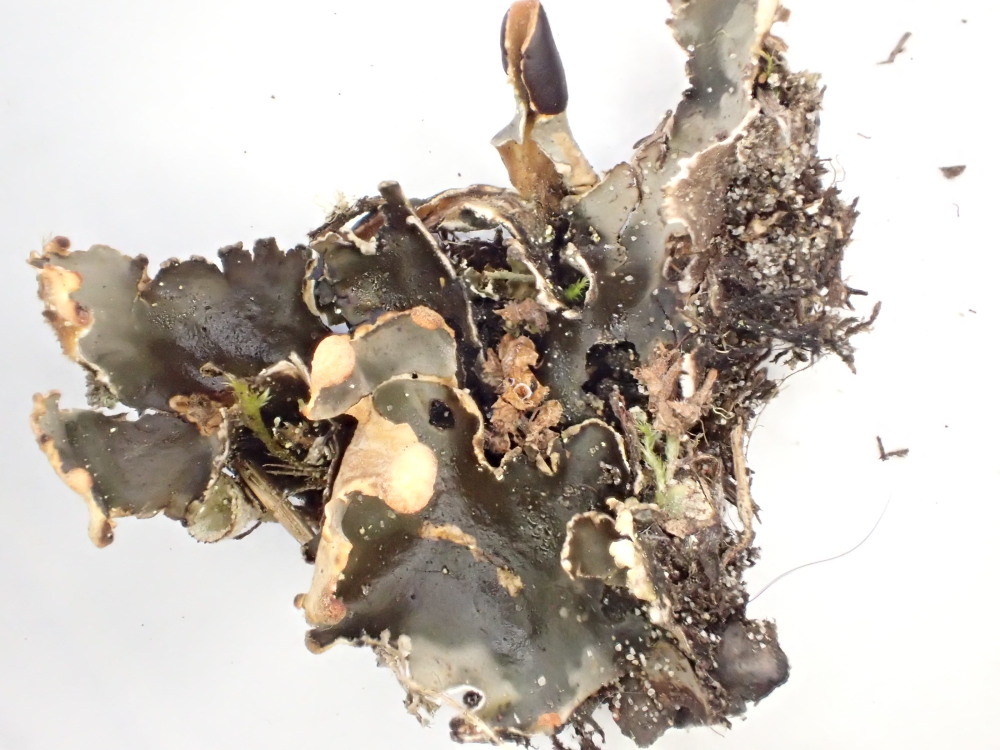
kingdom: Fungi
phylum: Ascomycota
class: Lecanoromycetes
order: Peltigerales
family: Peltigeraceae
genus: Peltigera
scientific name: Peltigera didactyla
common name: liden skjoldlav
